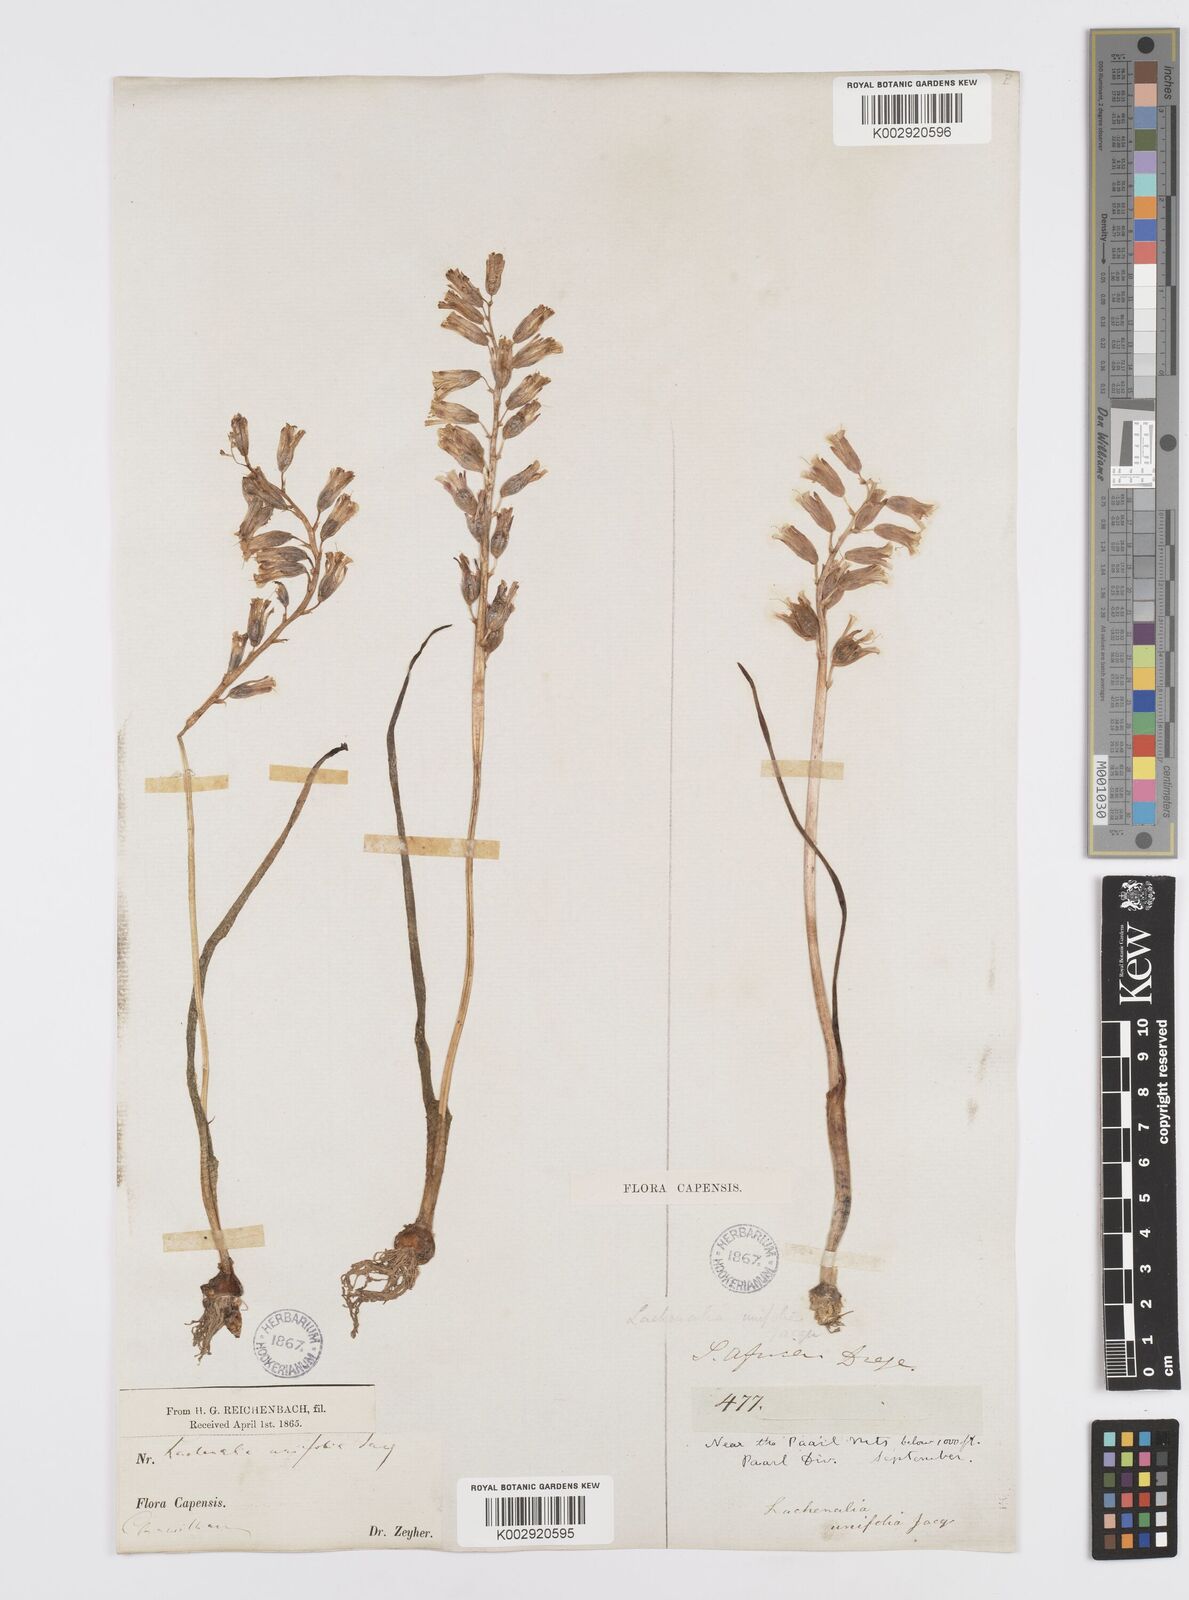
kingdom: Plantae
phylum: Tracheophyta
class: Liliopsida
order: Asparagales
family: Asparagaceae
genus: Lachenalia
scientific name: Lachenalia unifolia
